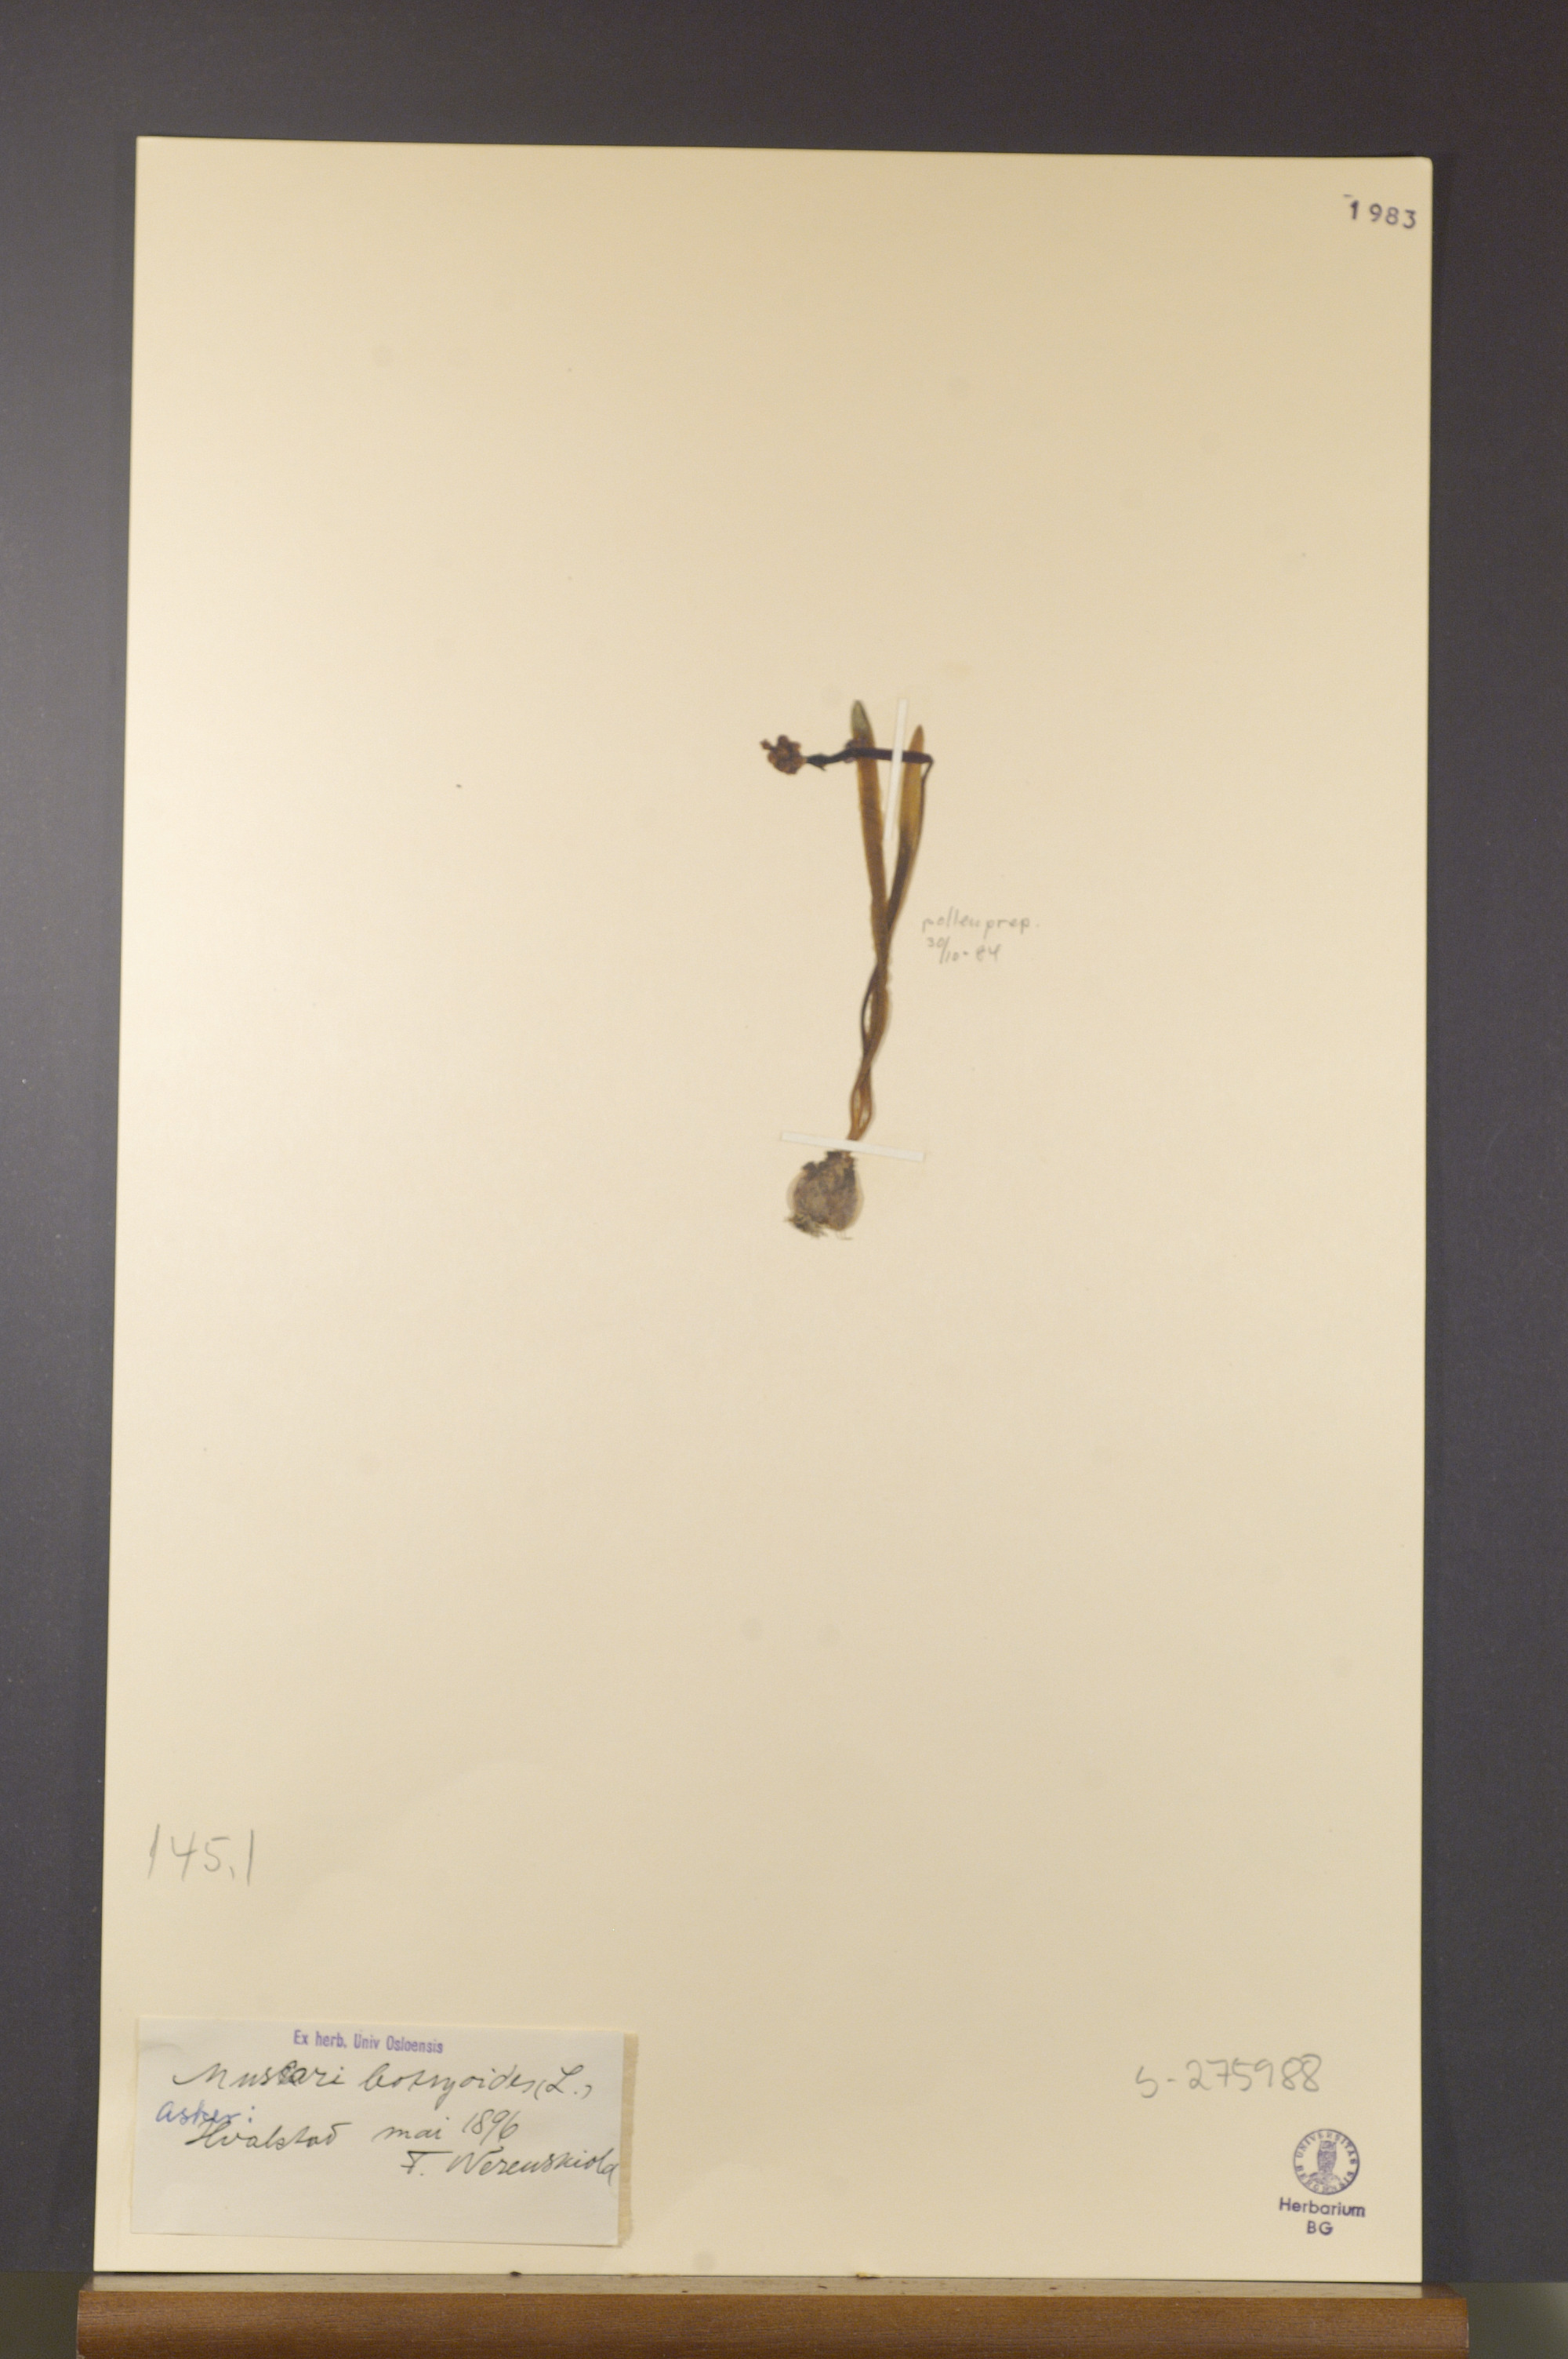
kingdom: Plantae
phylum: Tracheophyta
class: Liliopsida
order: Asparagales
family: Asparagaceae
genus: Muscari
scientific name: Muscari botryoides
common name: Compact grape-hyacinth
